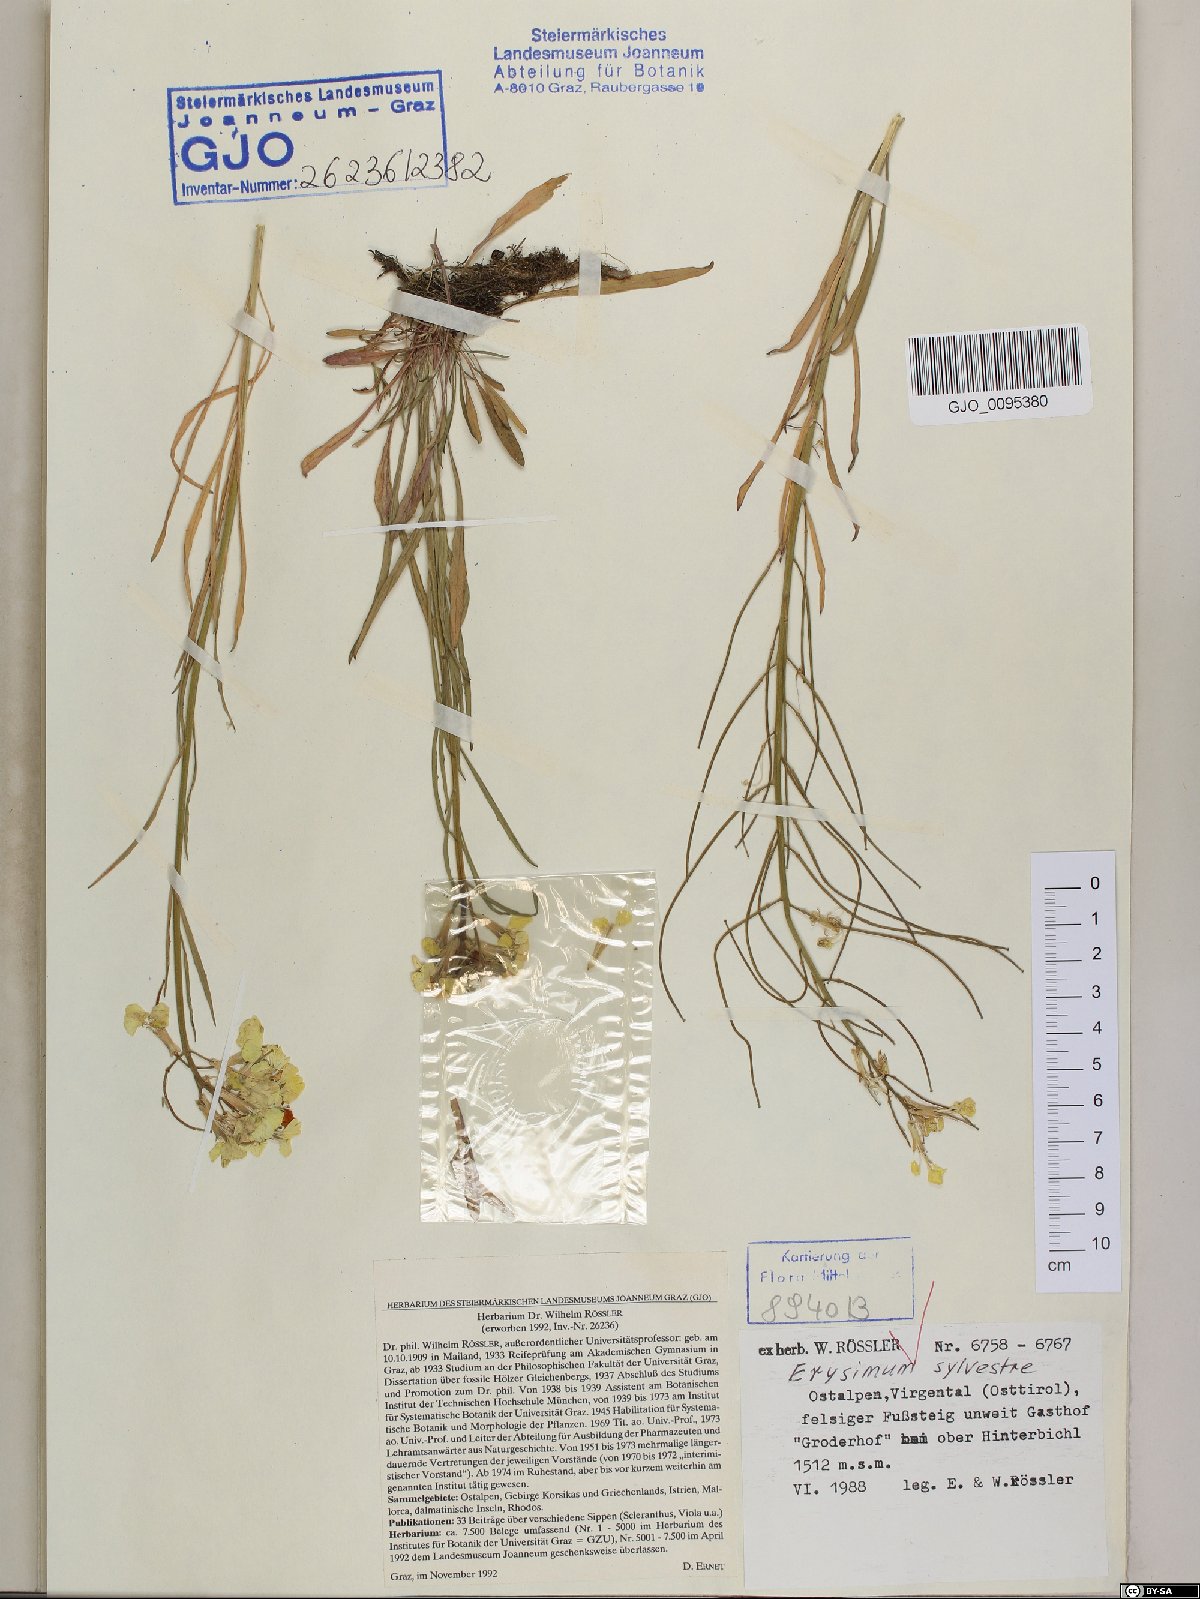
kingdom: Plantae
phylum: Tracheophyta
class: Magnoliopsida
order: Brassicales
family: Brassicaceae
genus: Erysimum
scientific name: Erysimum sylvestre
